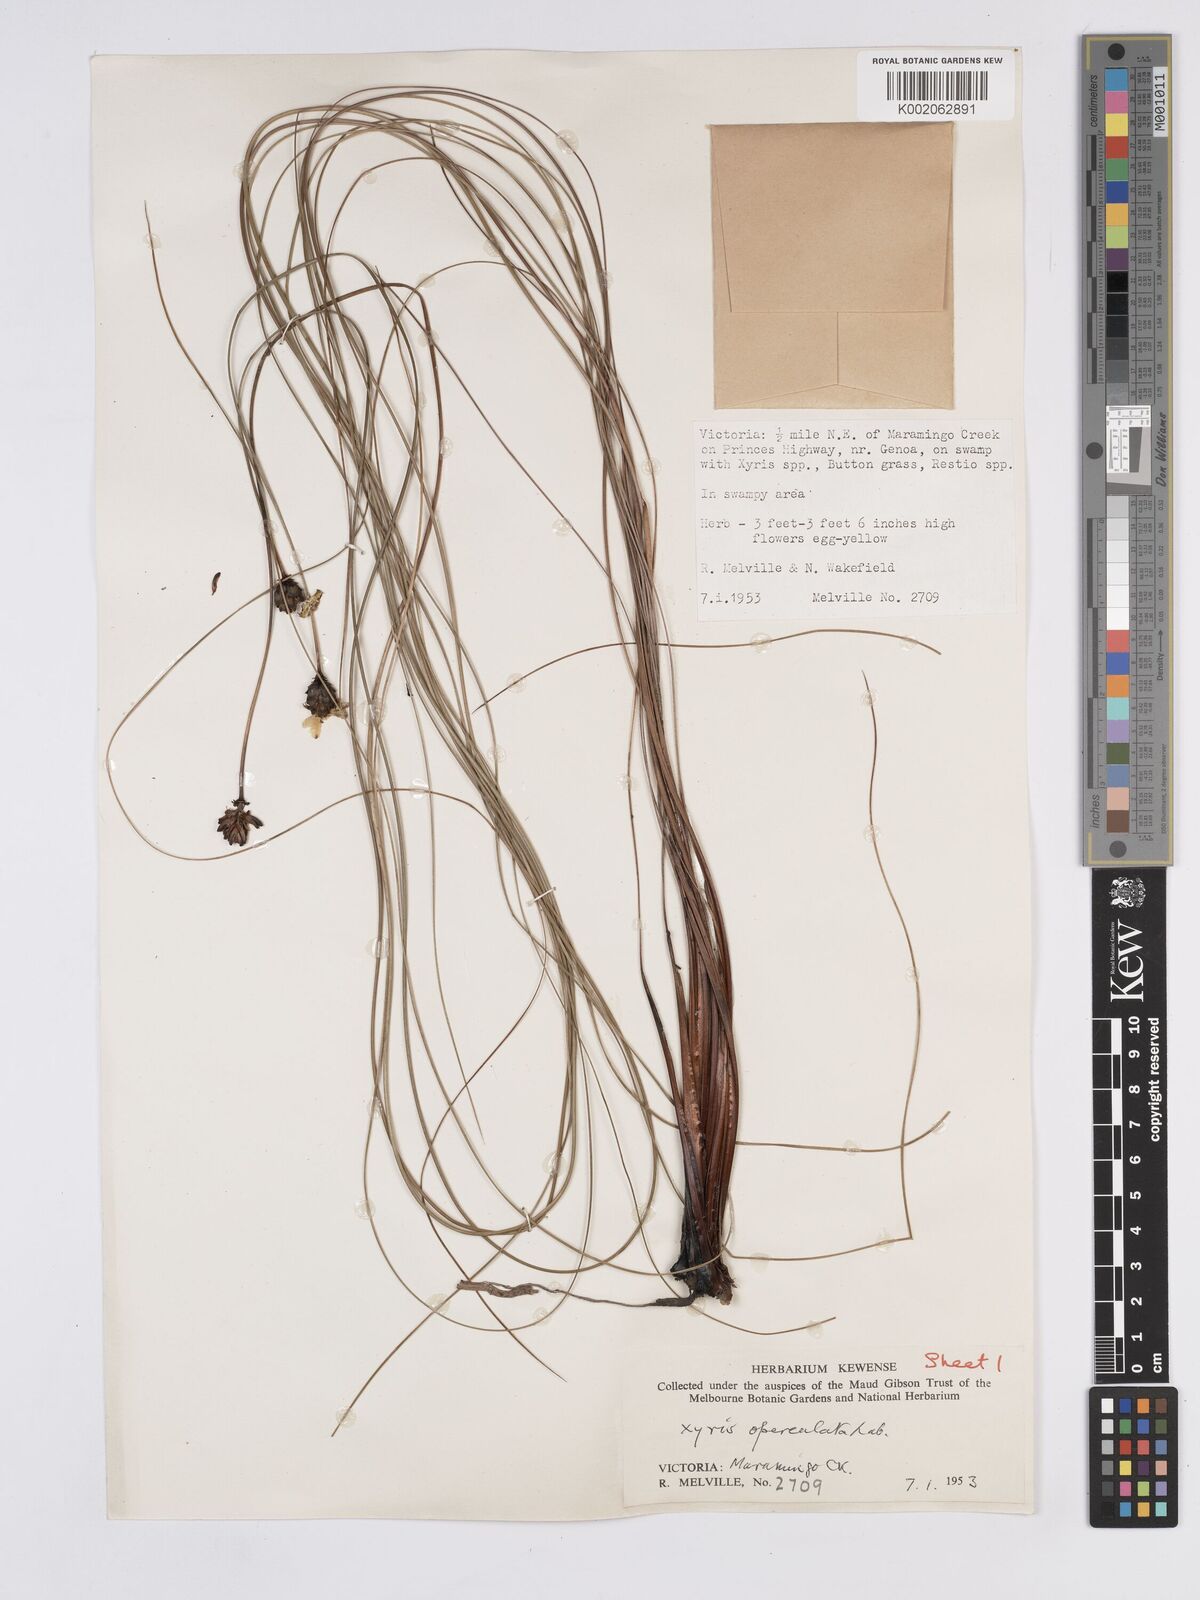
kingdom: Plantae
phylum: Tracheophyta
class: Liliopsida
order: Poales
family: Xyridaceae
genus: Xyris
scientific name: Xyris operculata
